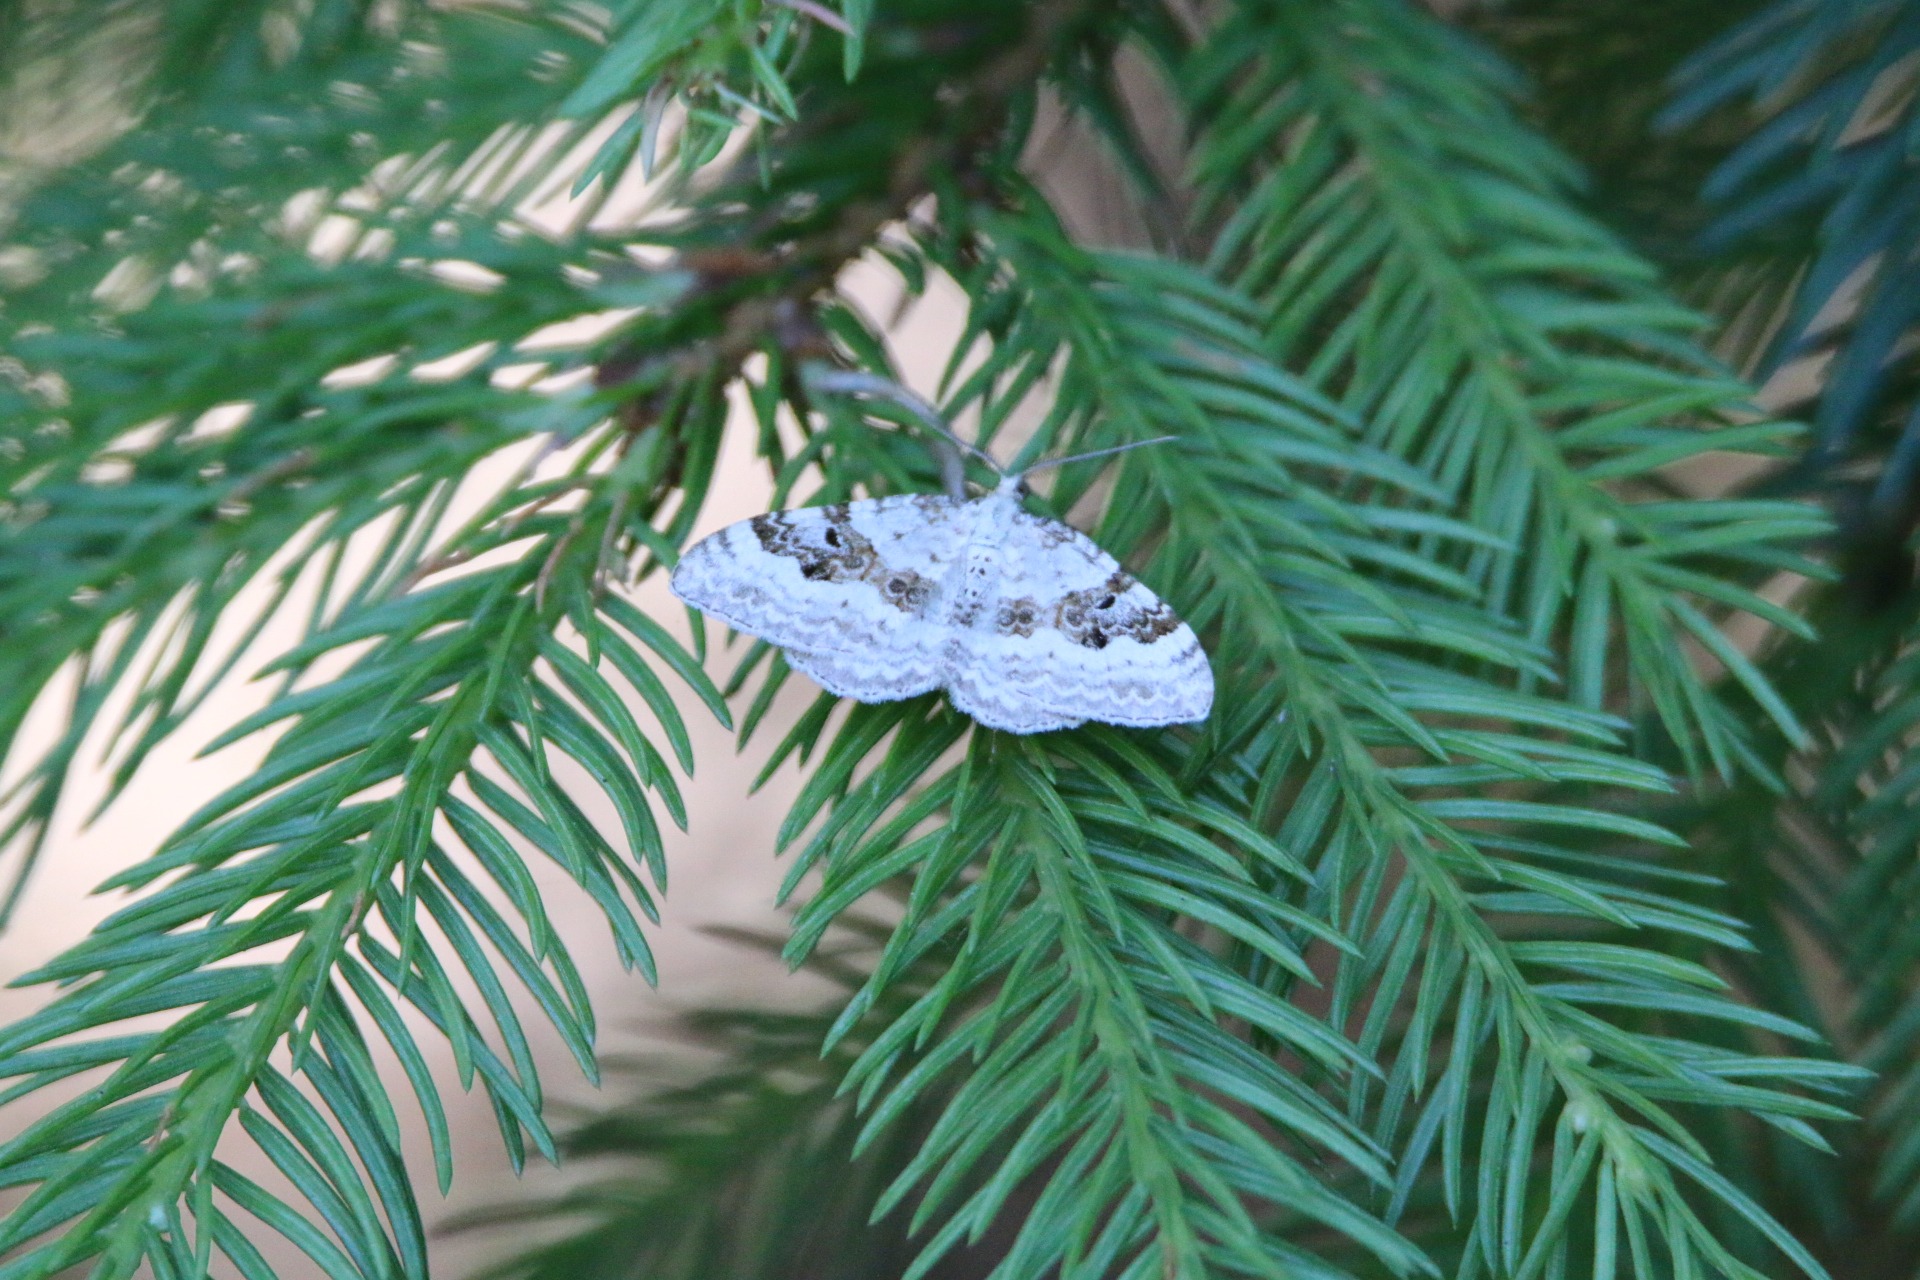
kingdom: Animalia
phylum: Arthropoda
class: Insecta
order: Lepidoptera
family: Geometridae
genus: Xanthorhoe
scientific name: Xanthorhoe montanata
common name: Bakke-bladmåler
